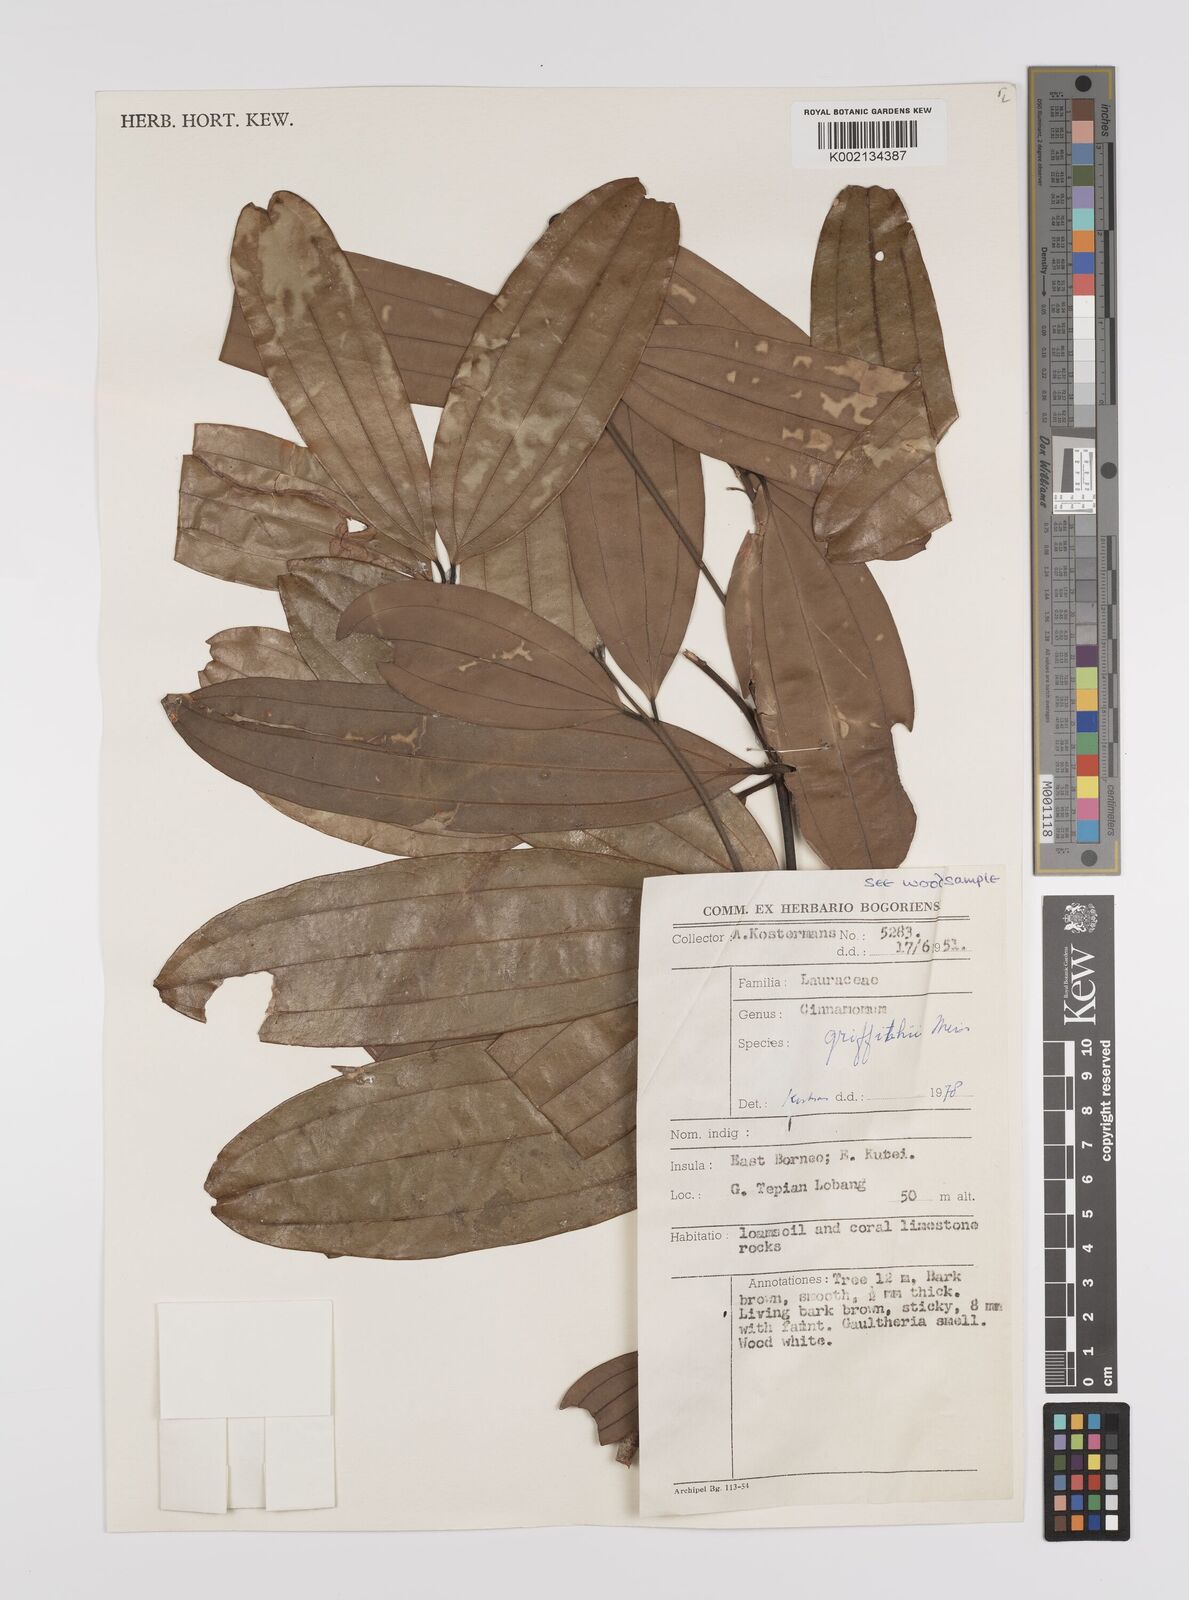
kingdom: Plantae
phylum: Tracheophyta
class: Magnoliopsida
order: Laurales
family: Lauraceae
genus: Cinnamomum
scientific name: Cinnamomum iners
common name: Wild cinnamon
